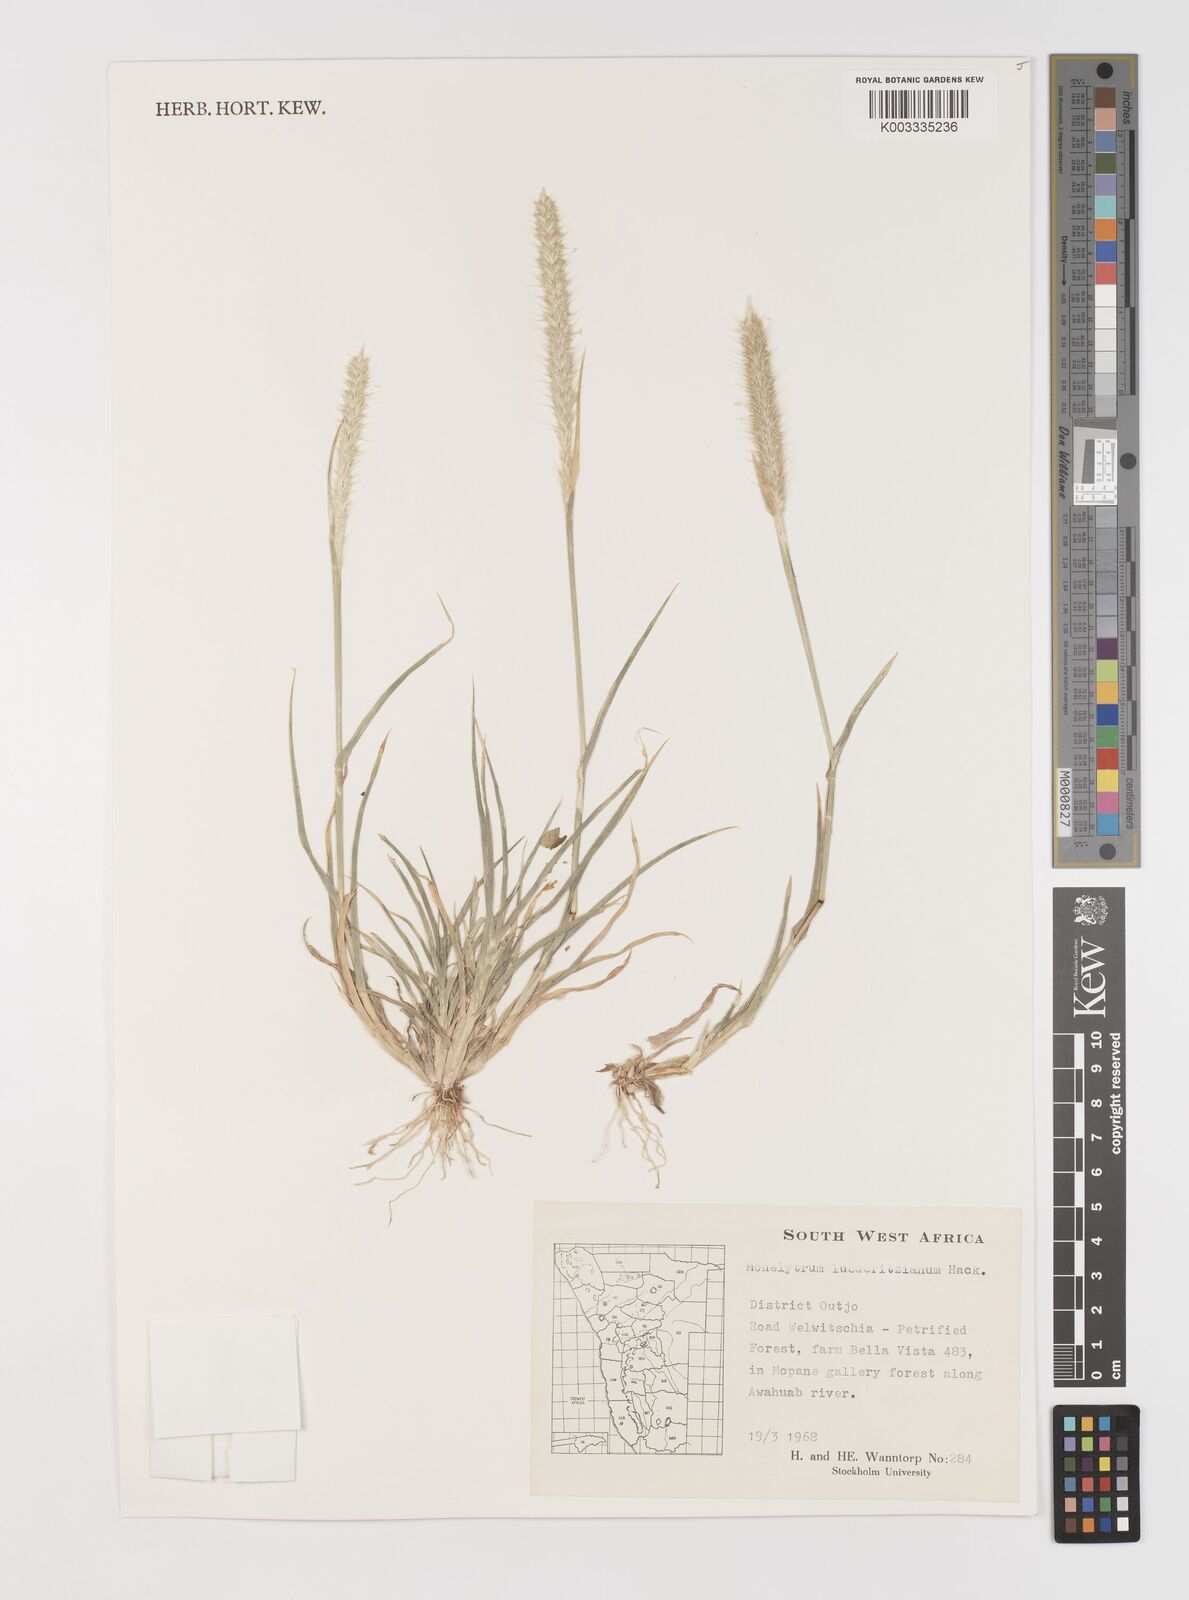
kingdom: Plantae
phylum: Tracheophyta
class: Liliopsida
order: Poales
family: Poaceae
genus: Monelytrum
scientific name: Monelytrum luederitzianum
